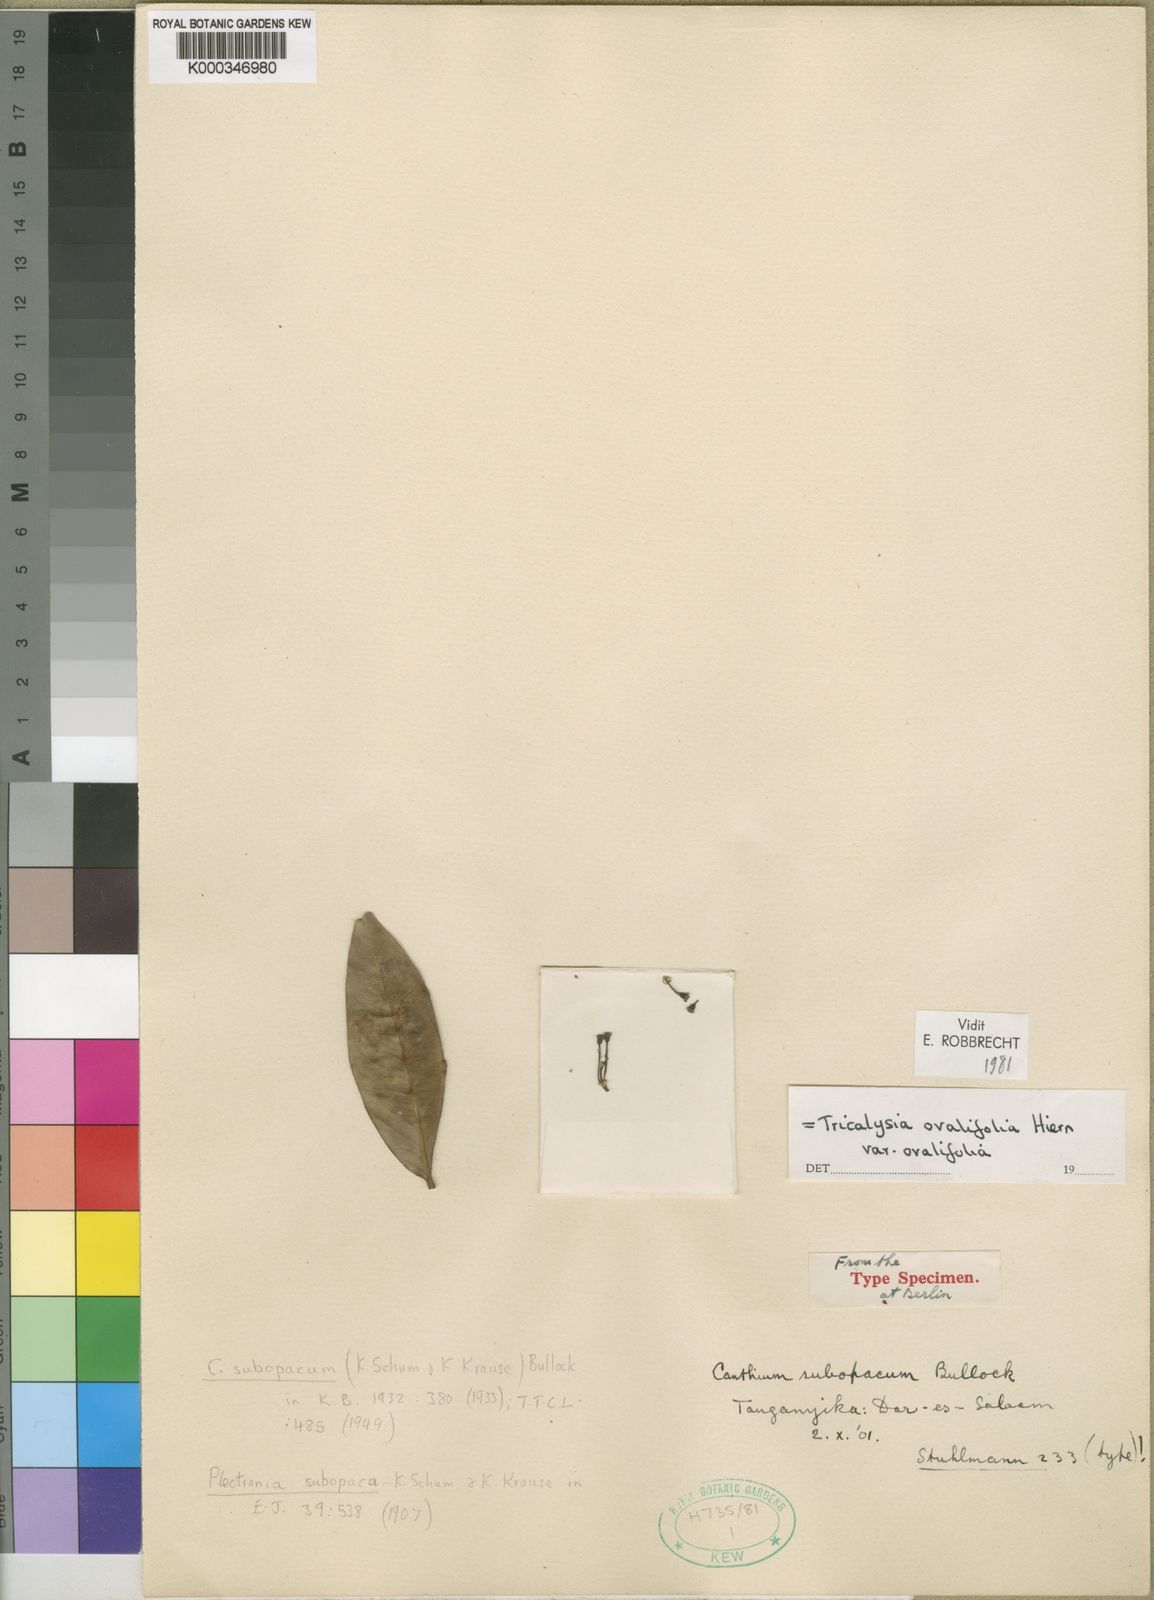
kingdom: Plantae
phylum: Tracheophyta
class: Magnoliopsida
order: Gentianales
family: Rubiaceae
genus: Empogona
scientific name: Empogona ovalifolia
